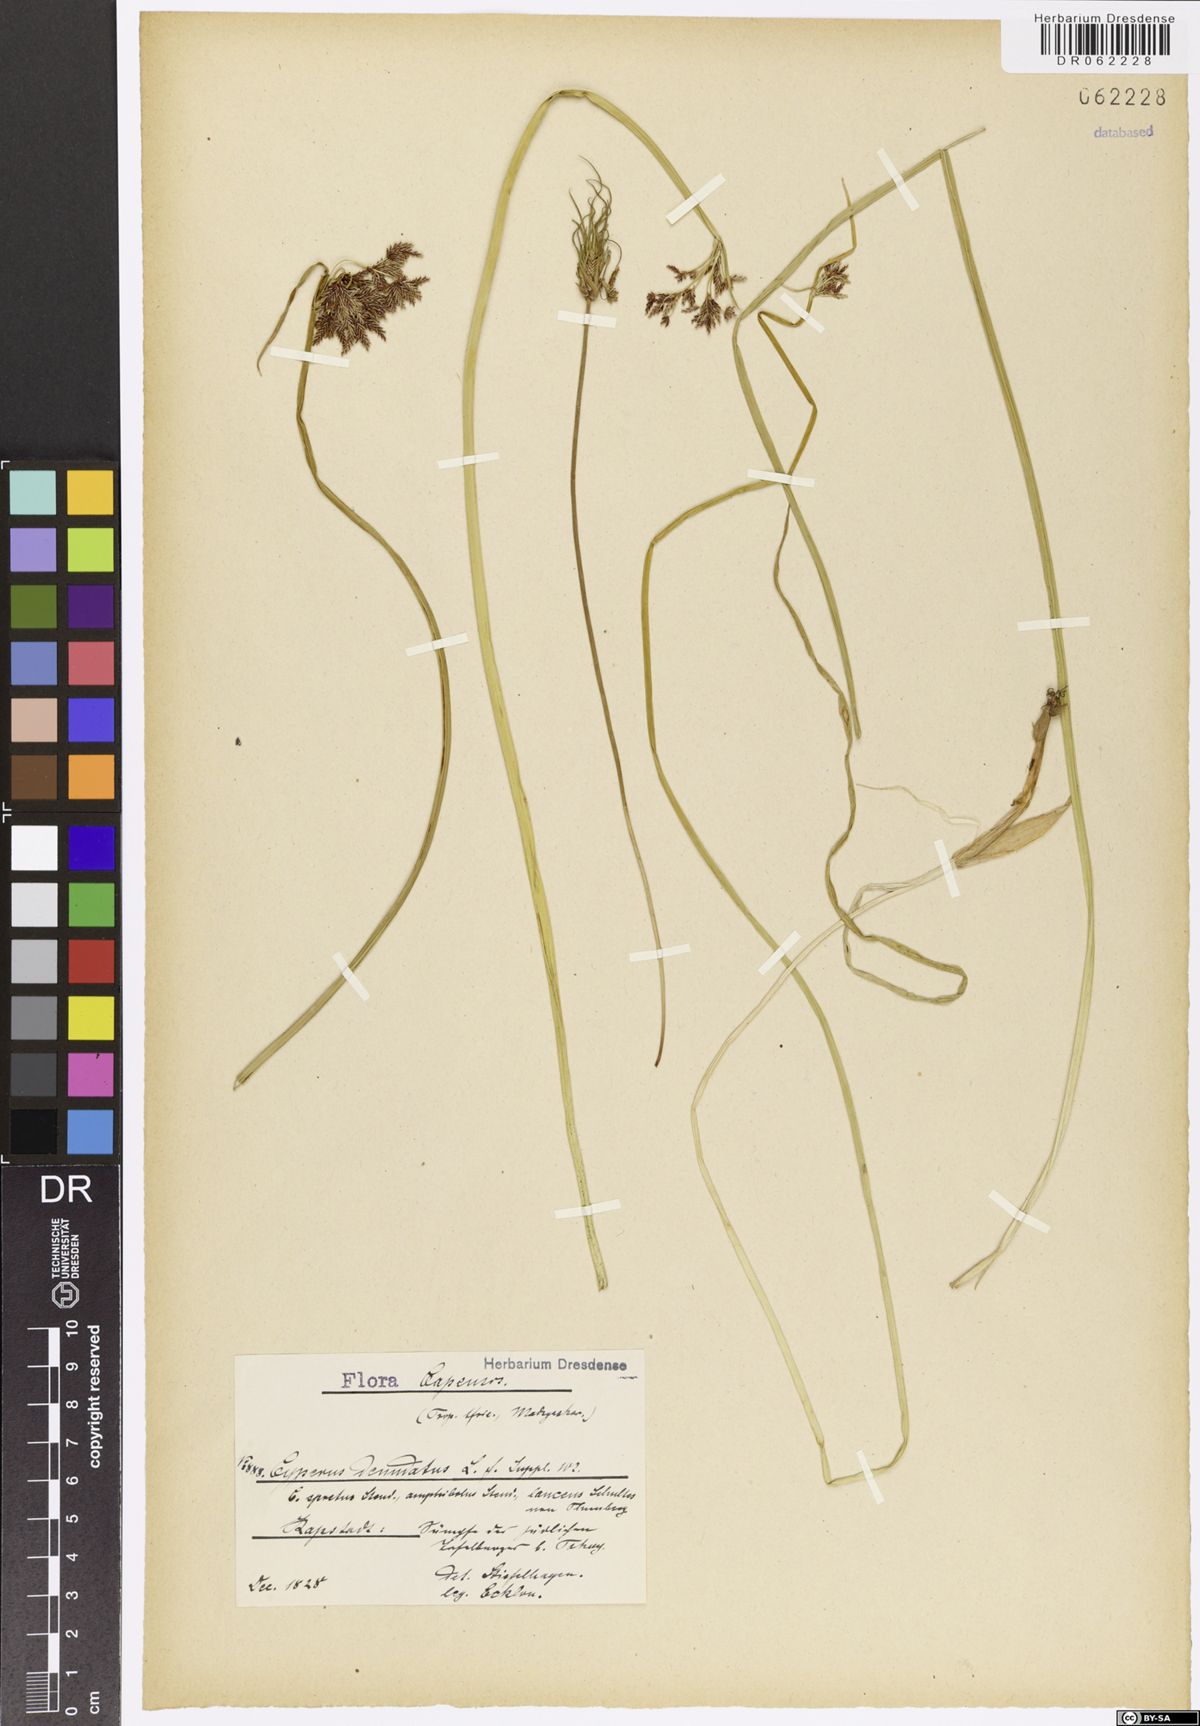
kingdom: Plantae
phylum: Tracheophyta
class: Liliopsida
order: Poales
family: Cyperaceae
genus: Cyperus
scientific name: Cyperus denudatus
